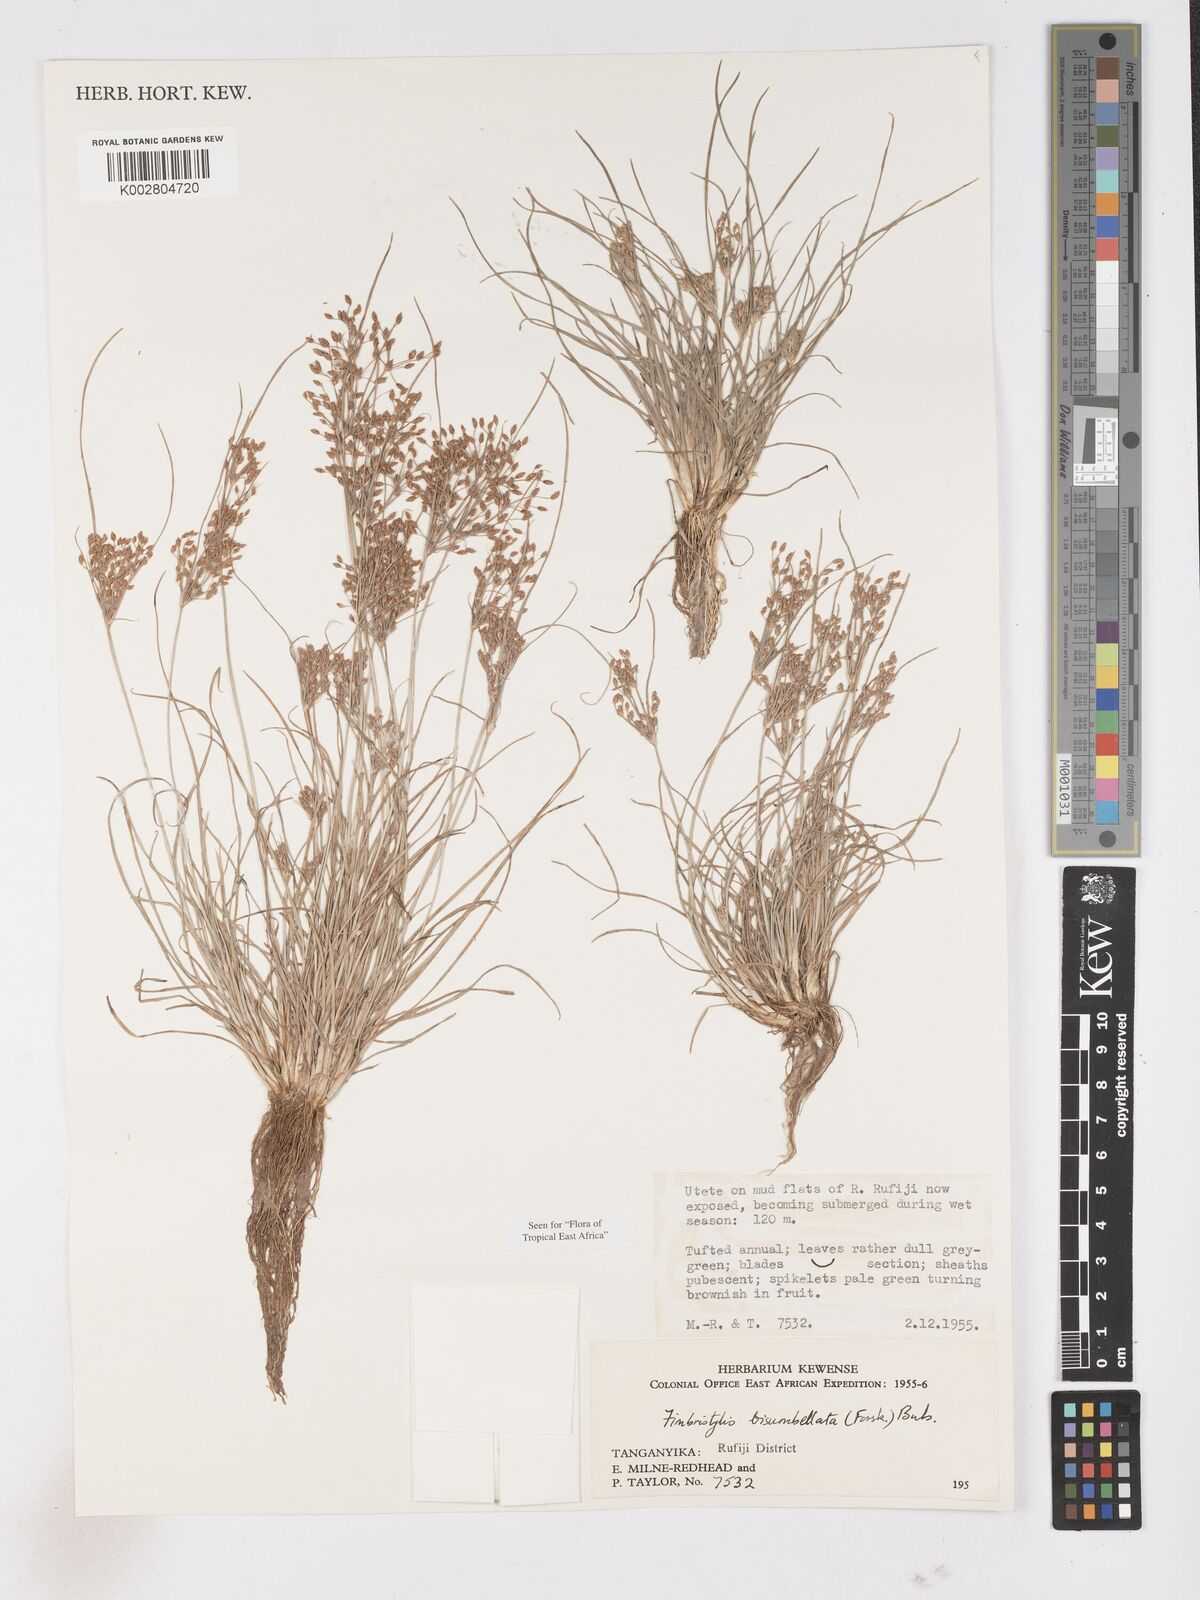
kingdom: Plantae
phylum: Tracheophyta
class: Liliopsida
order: Poales
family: Cyperaceae
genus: Fimbristylis
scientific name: Fimbristylis bisumbellata
